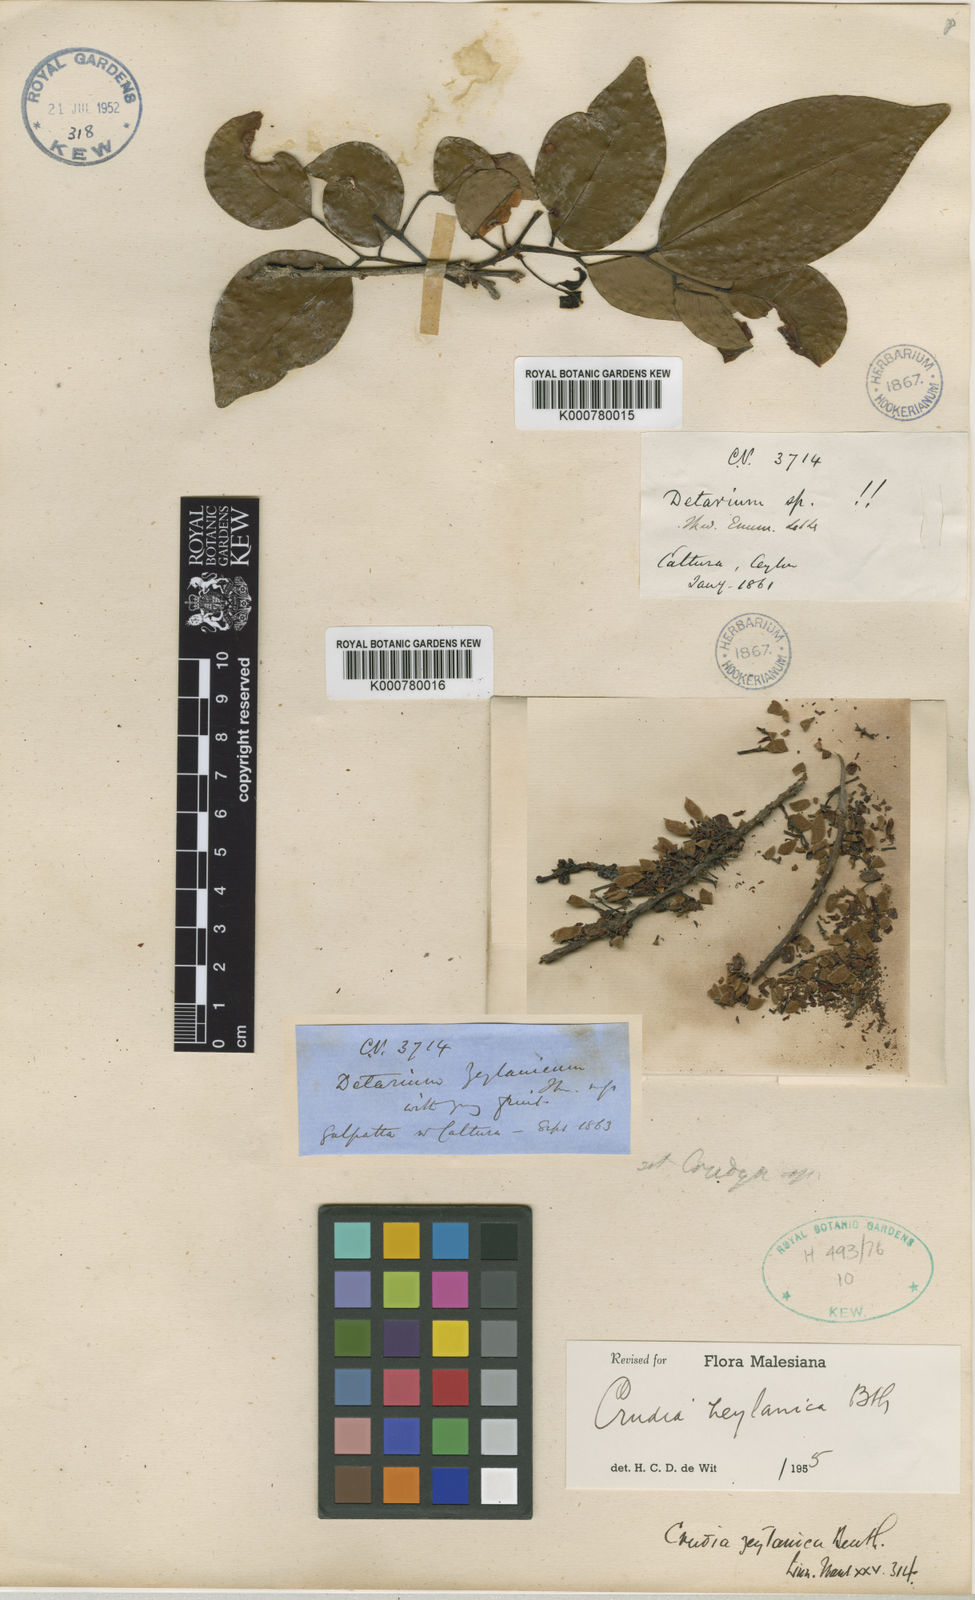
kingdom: Plantae
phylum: Tracheophyta
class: Magnoliopsida
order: Fabales
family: Fabaceae
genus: Crudia
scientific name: Crudia zeylanica
